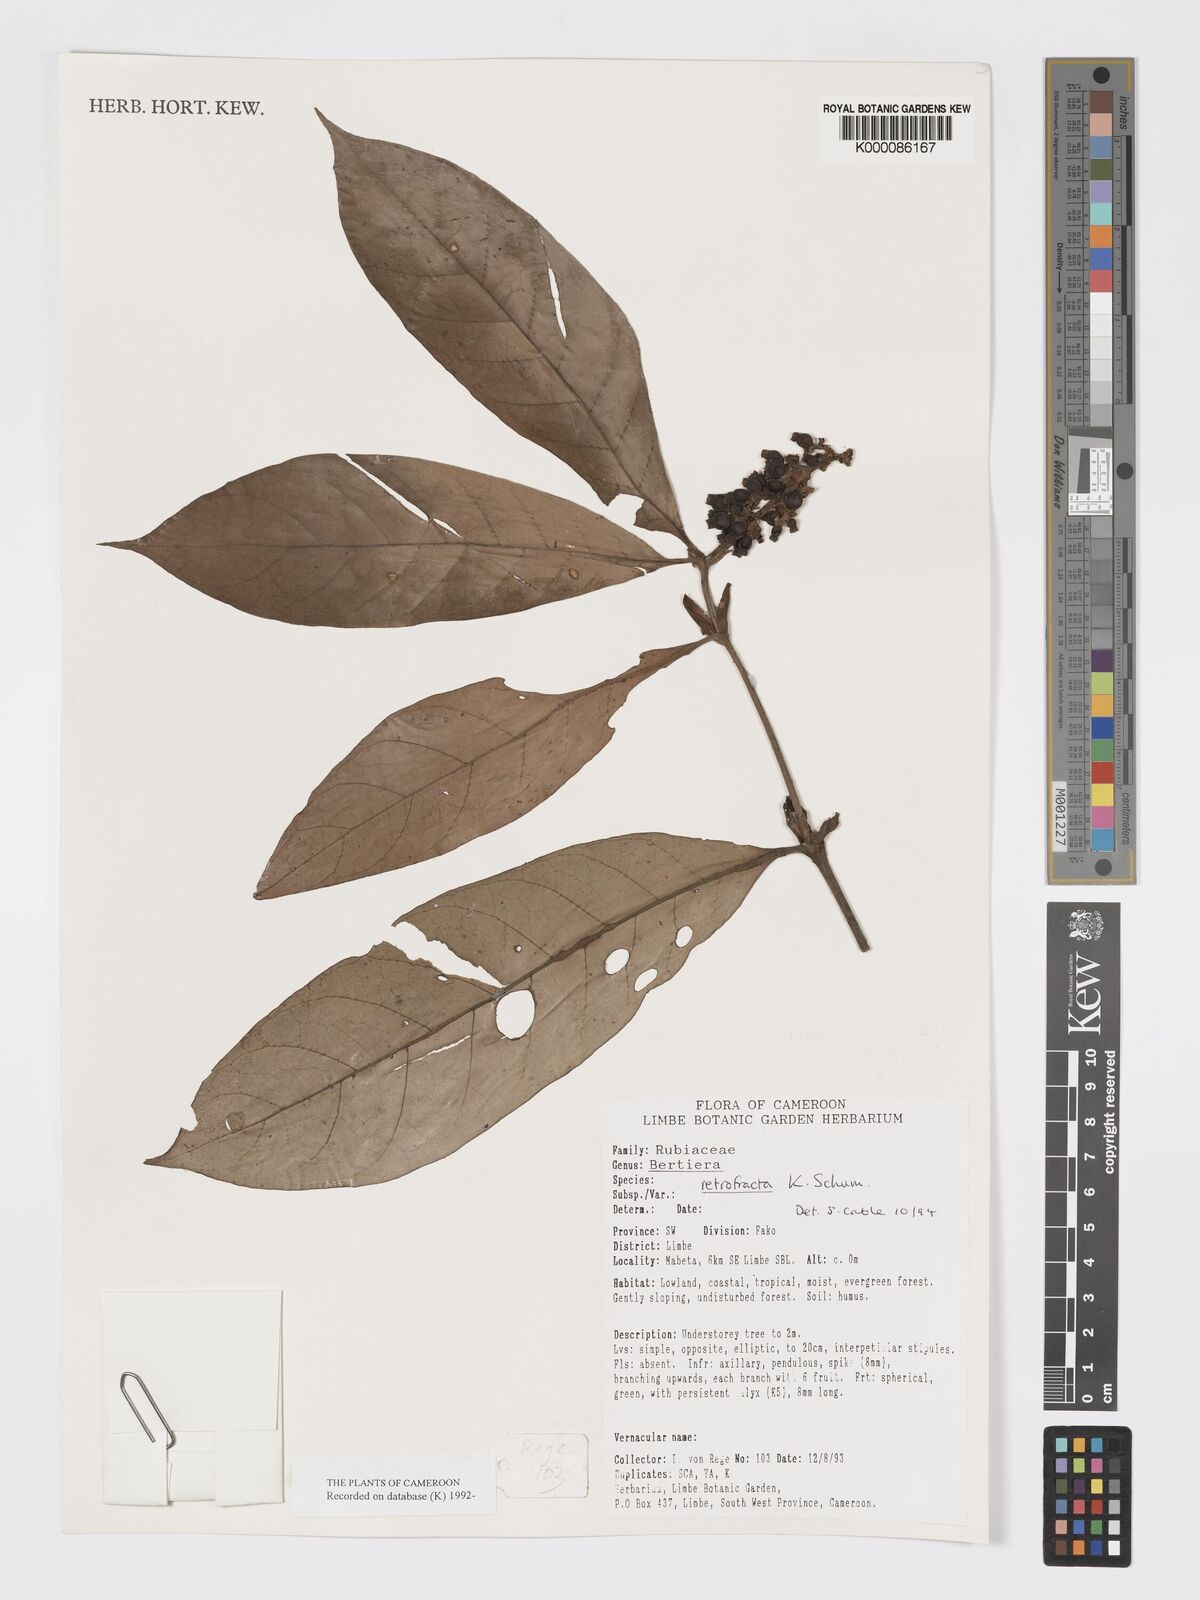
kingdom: Plantae
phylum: Tracheophyta
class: Magnoliopsida
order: Gentianales
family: Rubiaceae
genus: Bertiera
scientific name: Bertiera retrofracta
